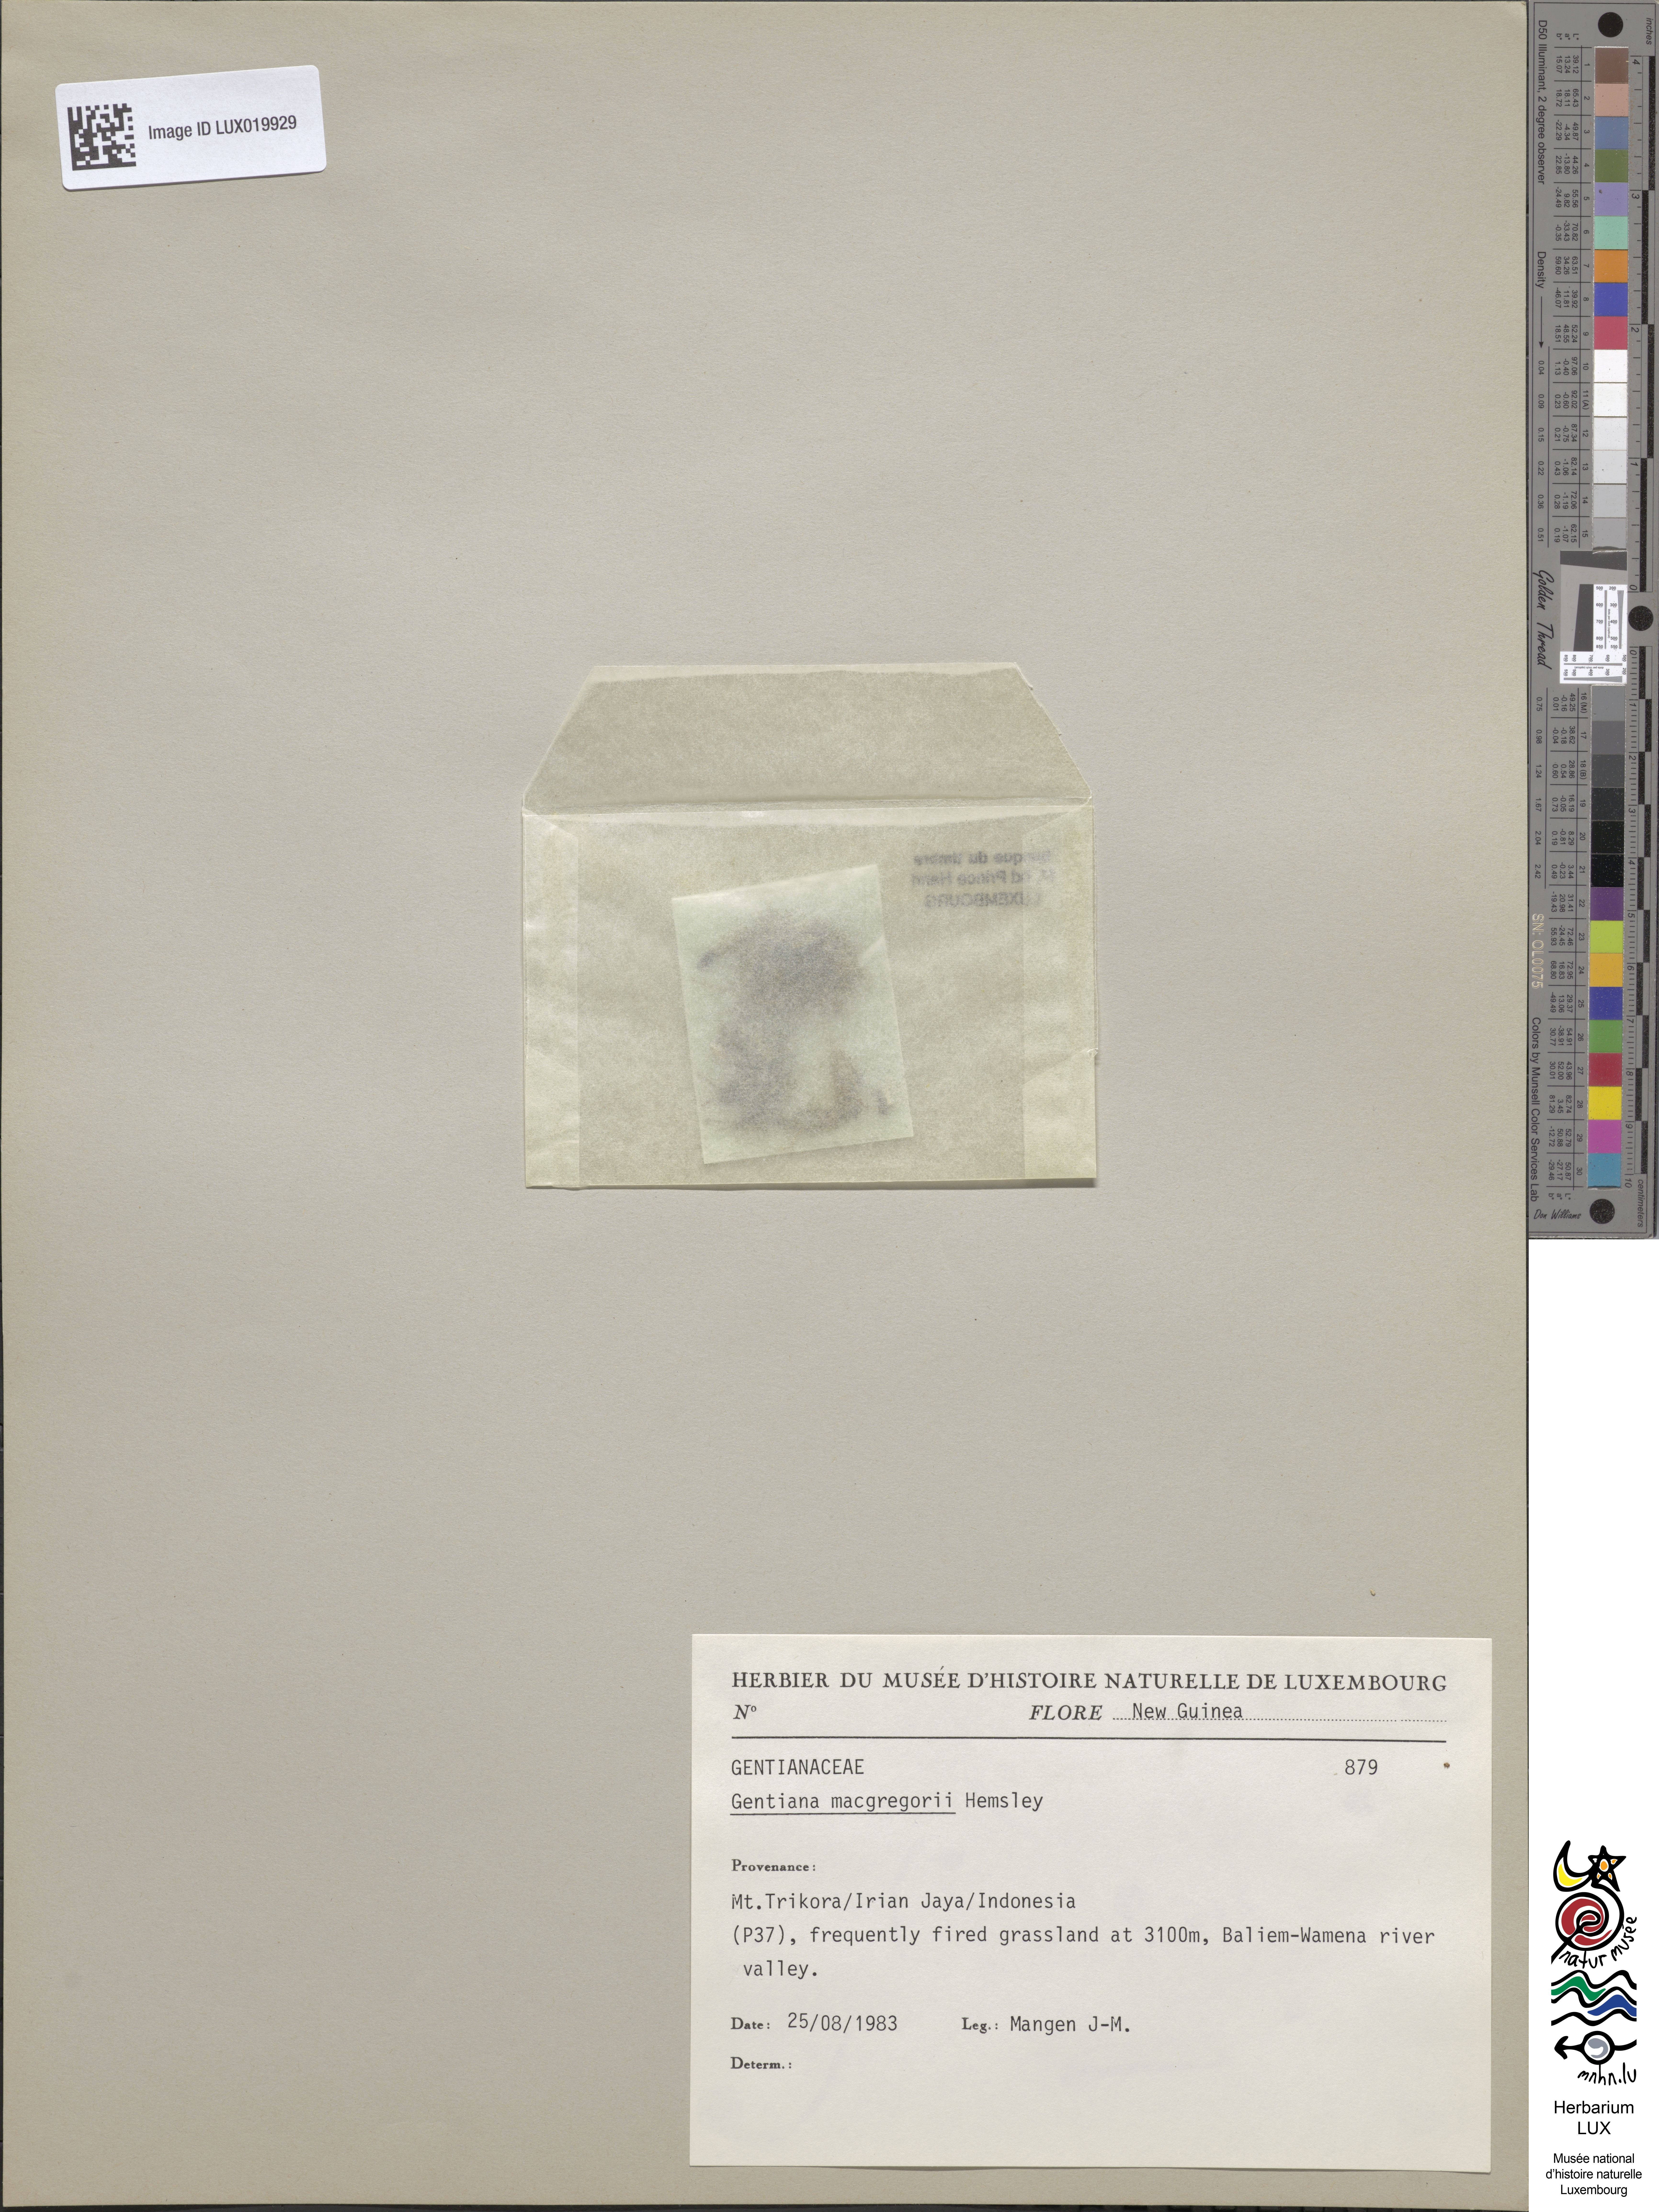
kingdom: Plantae
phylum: Tracheophyta
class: Magnoliopsida
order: Gentianales
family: Gentianaceae
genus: Gentiana
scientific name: Gentiana macgregoryi
